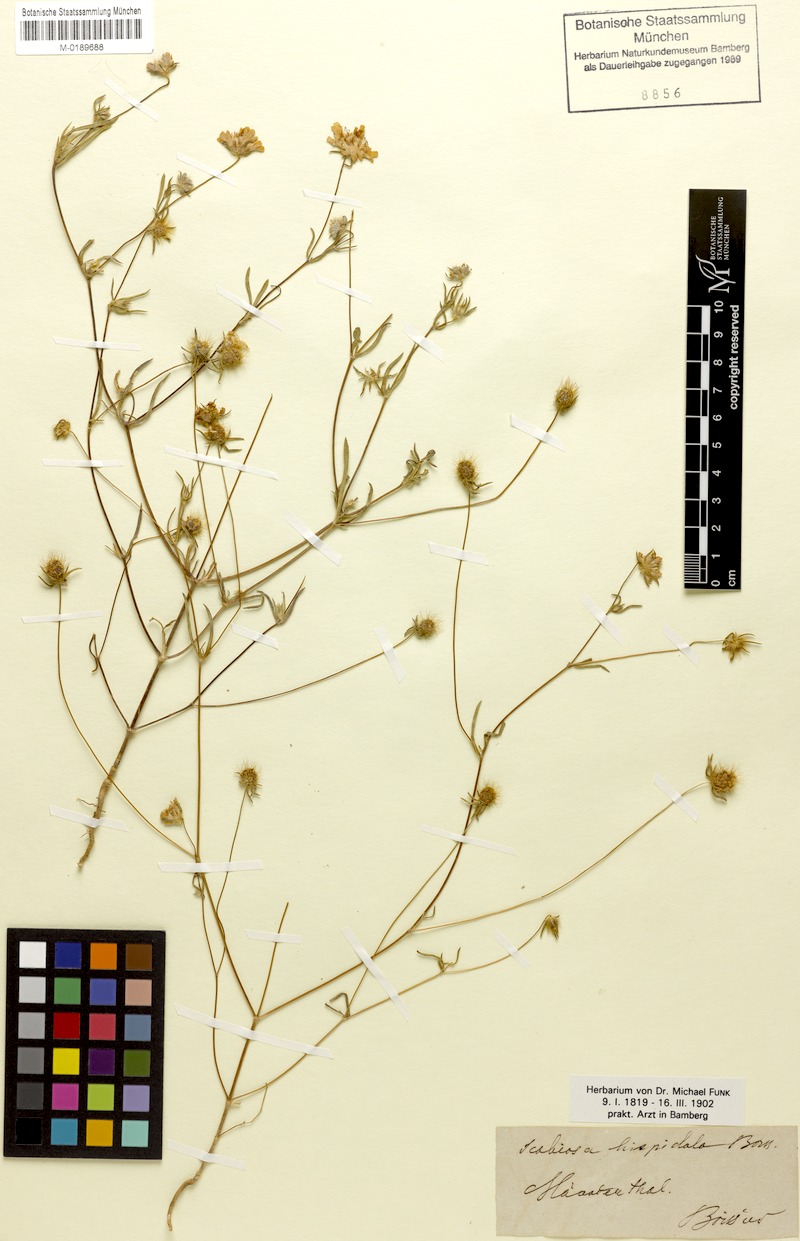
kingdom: Plantae
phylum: Tracheophyta
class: Magnoliopsida
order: Dipsacales
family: Caprifoliaceae
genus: Lomelosia
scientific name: Lomelosia hispidula
